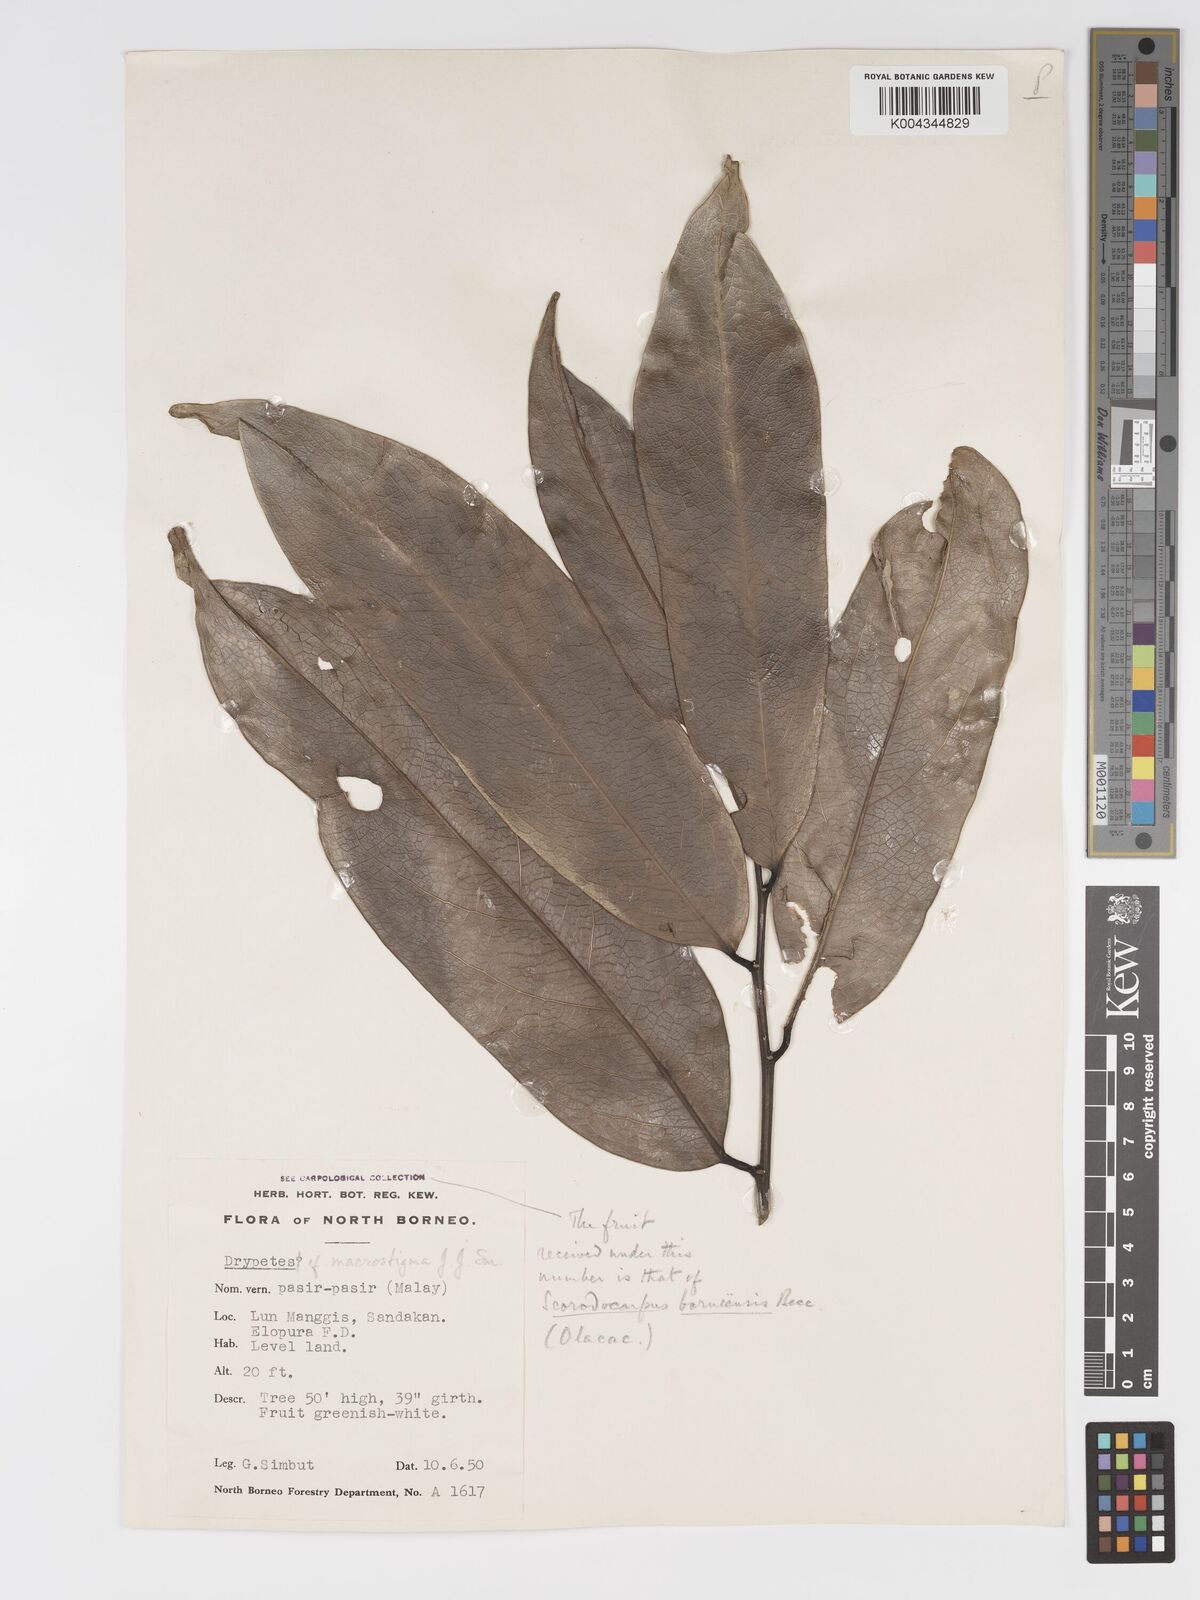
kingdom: Plantae
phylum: Tracheophyta
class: Magnoliopsida
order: Malpighiales
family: Putranjivaceae
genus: Drypetes
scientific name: Drypetes macrostigma
